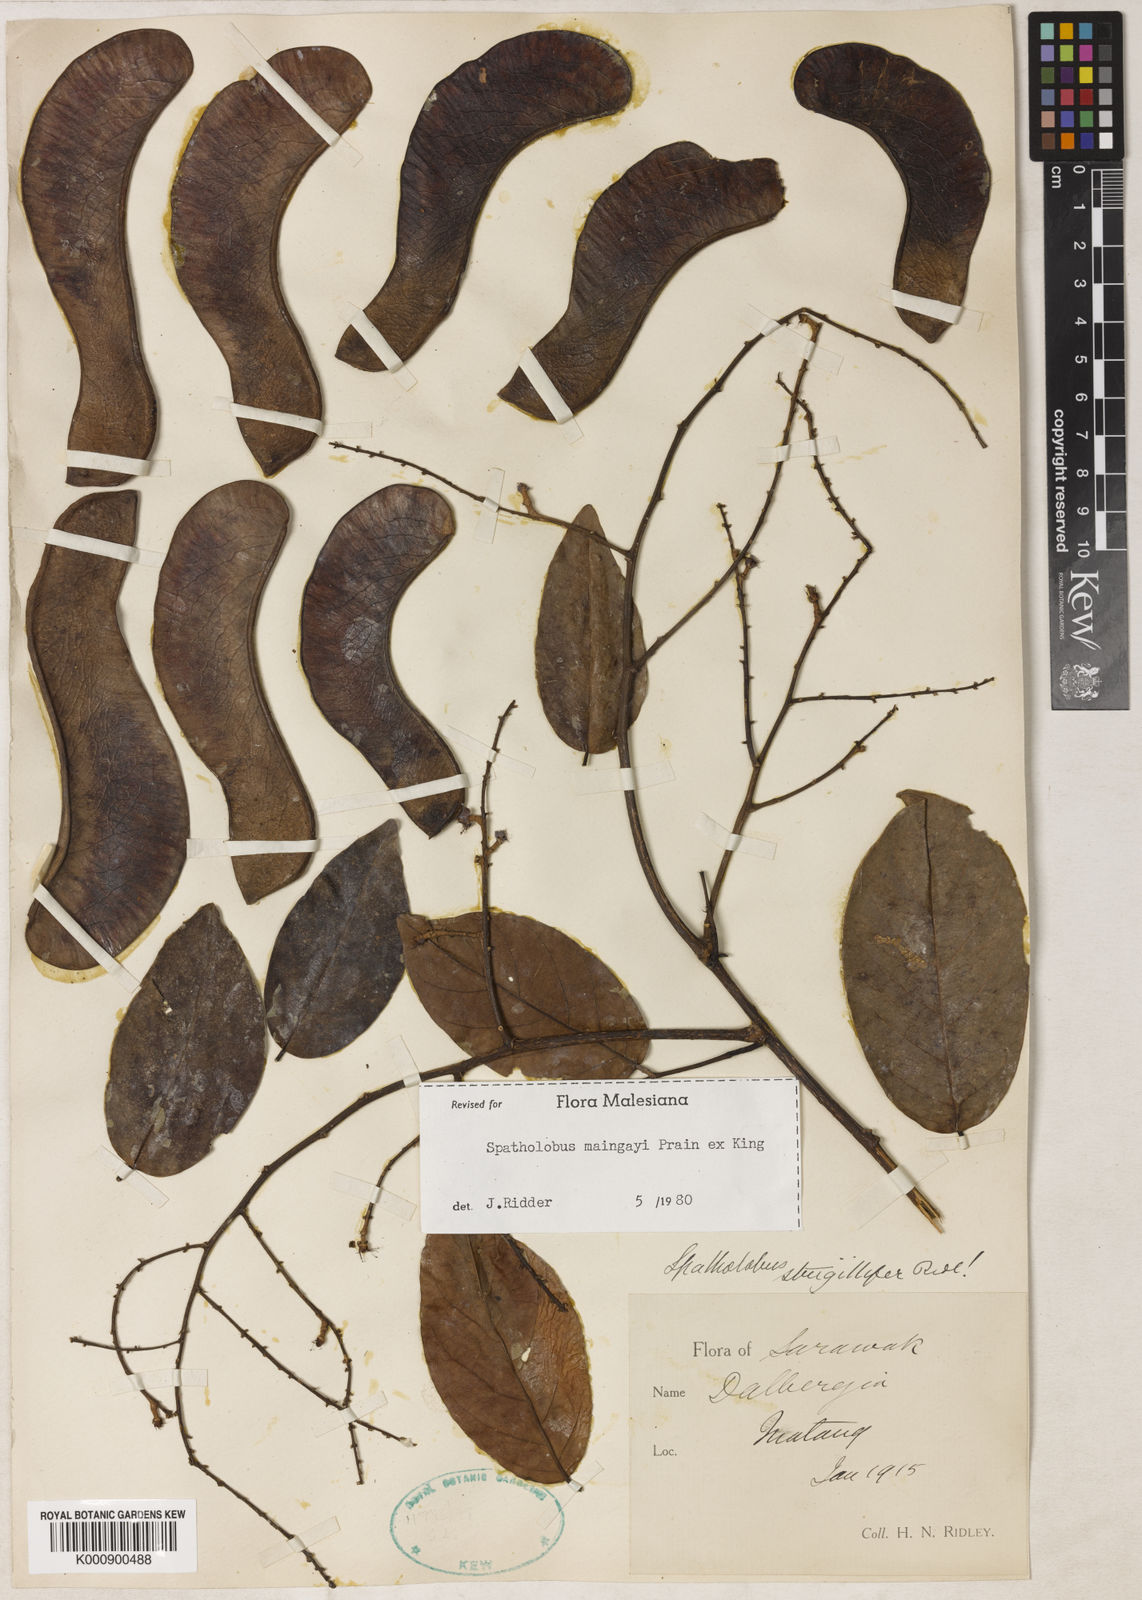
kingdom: Plantae
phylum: Tracheophyta
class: Magnoliopsida
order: Fabales
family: Fabaceae
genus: Spatholobus
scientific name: Spatholobus
